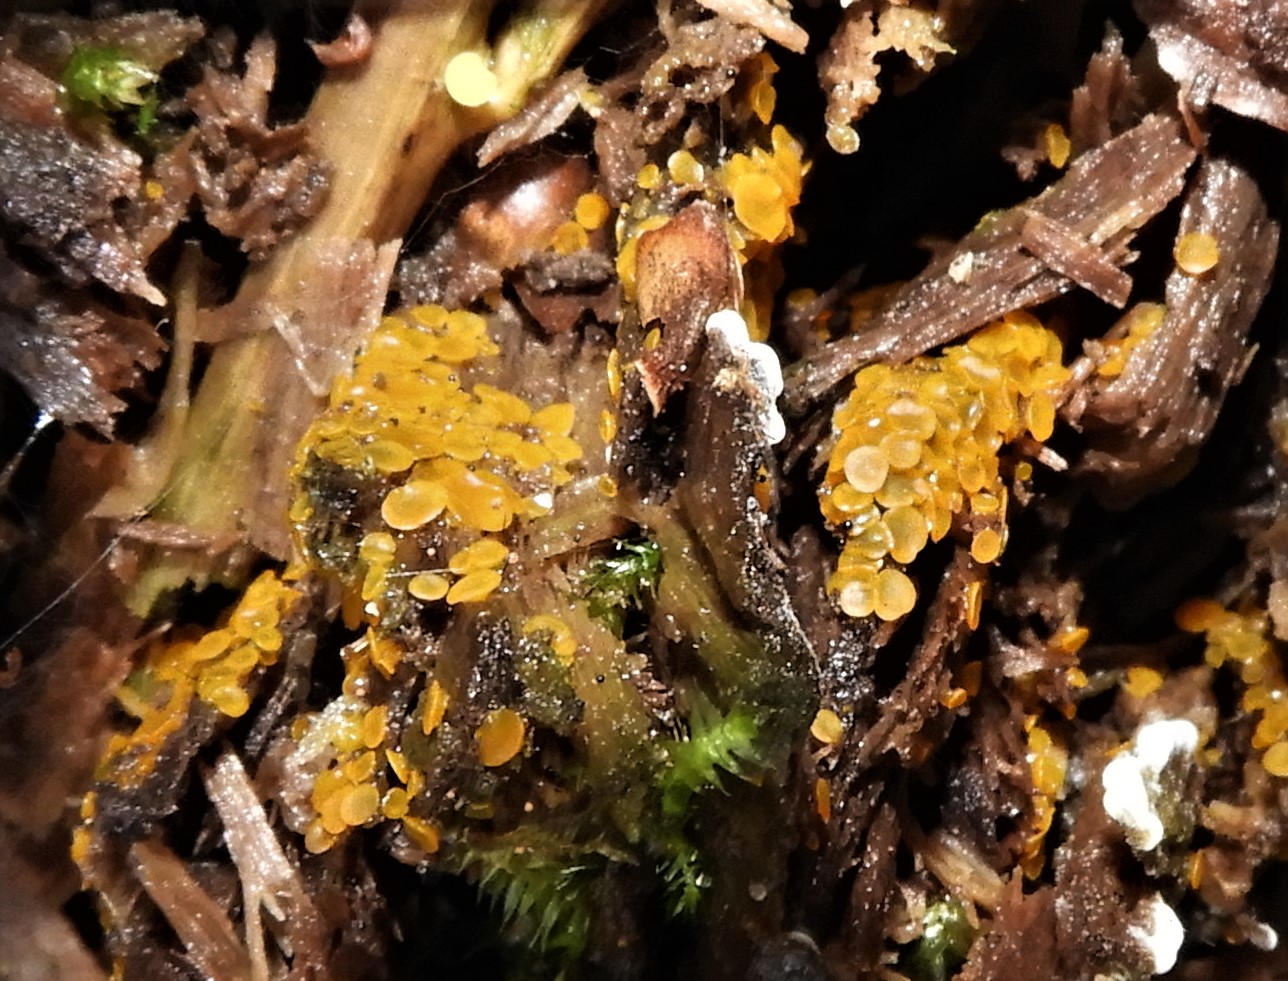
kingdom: Fungi
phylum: Ascomycota
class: Orbiliomycetes
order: Orbiliales
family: Orbiliaceae
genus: Orbilia
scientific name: Orbilia xanthostigma
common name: krumsporet voksskive
